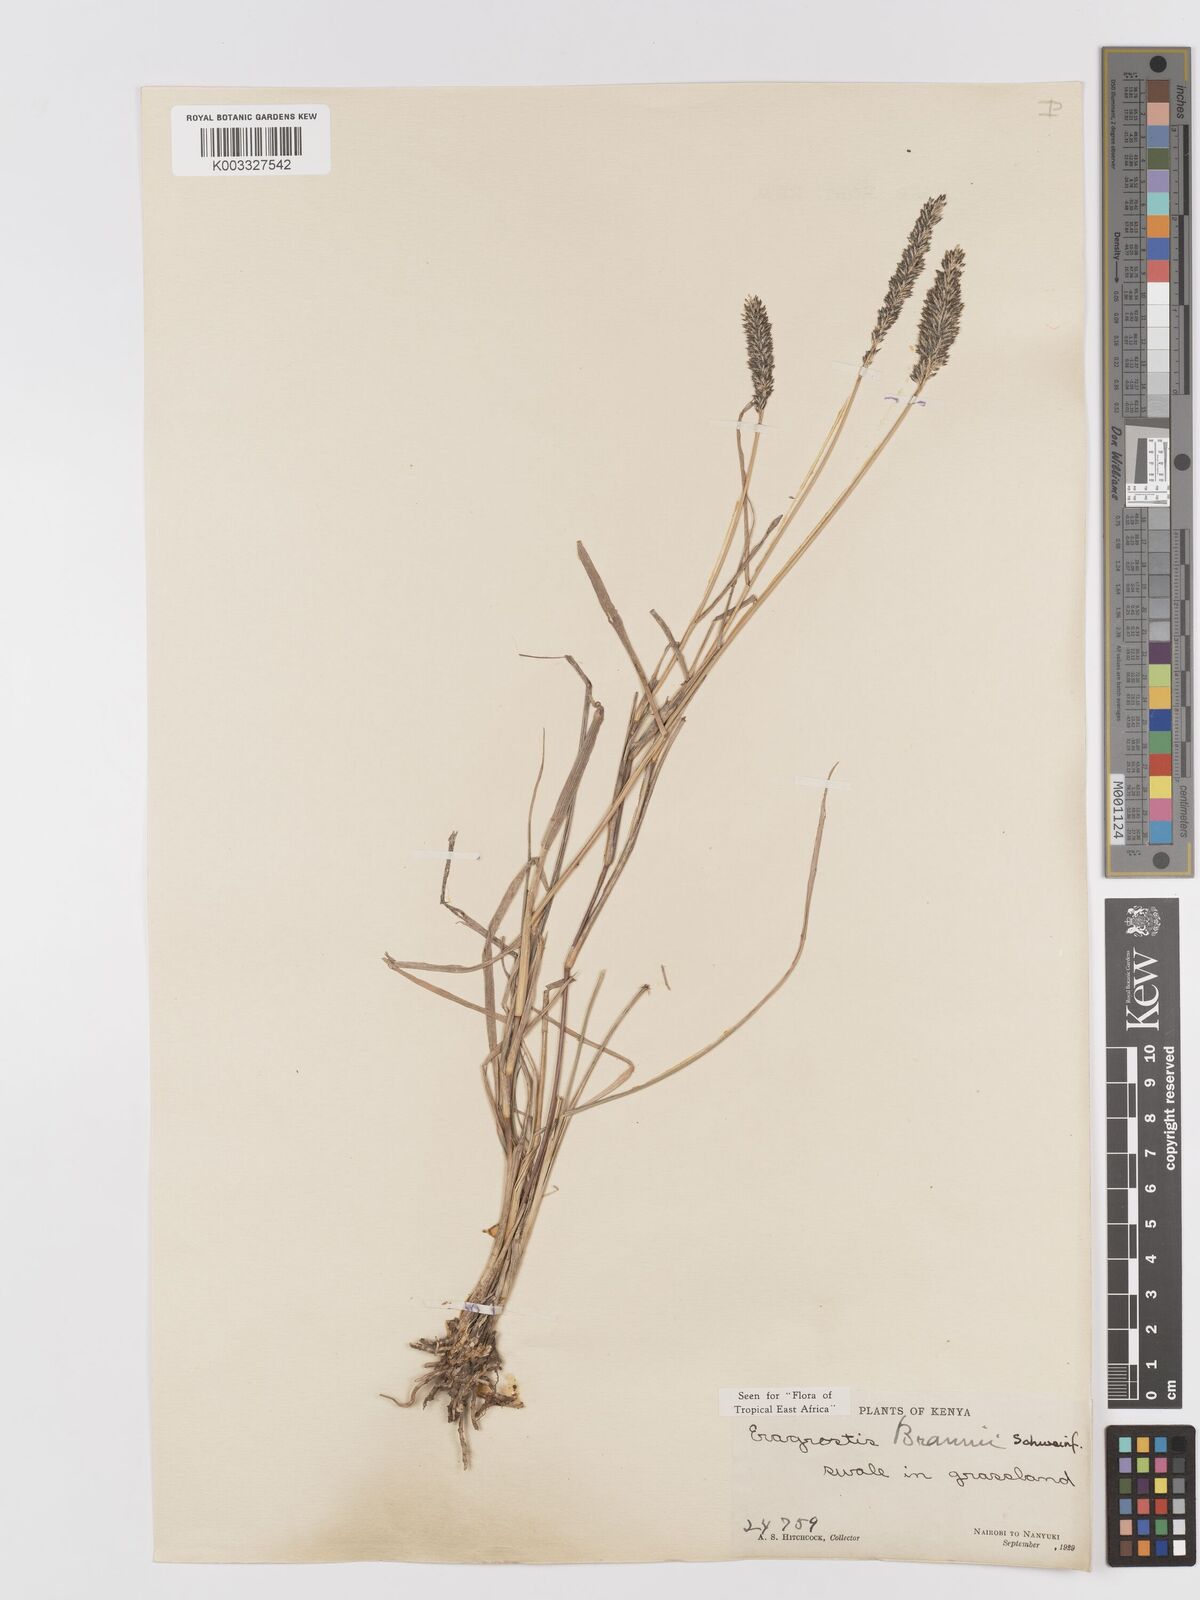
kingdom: Plantae
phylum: Tracheophyta
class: Liliopsida
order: Poales
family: Poaceae
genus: Eragrostis
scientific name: Eragrostis braunii
